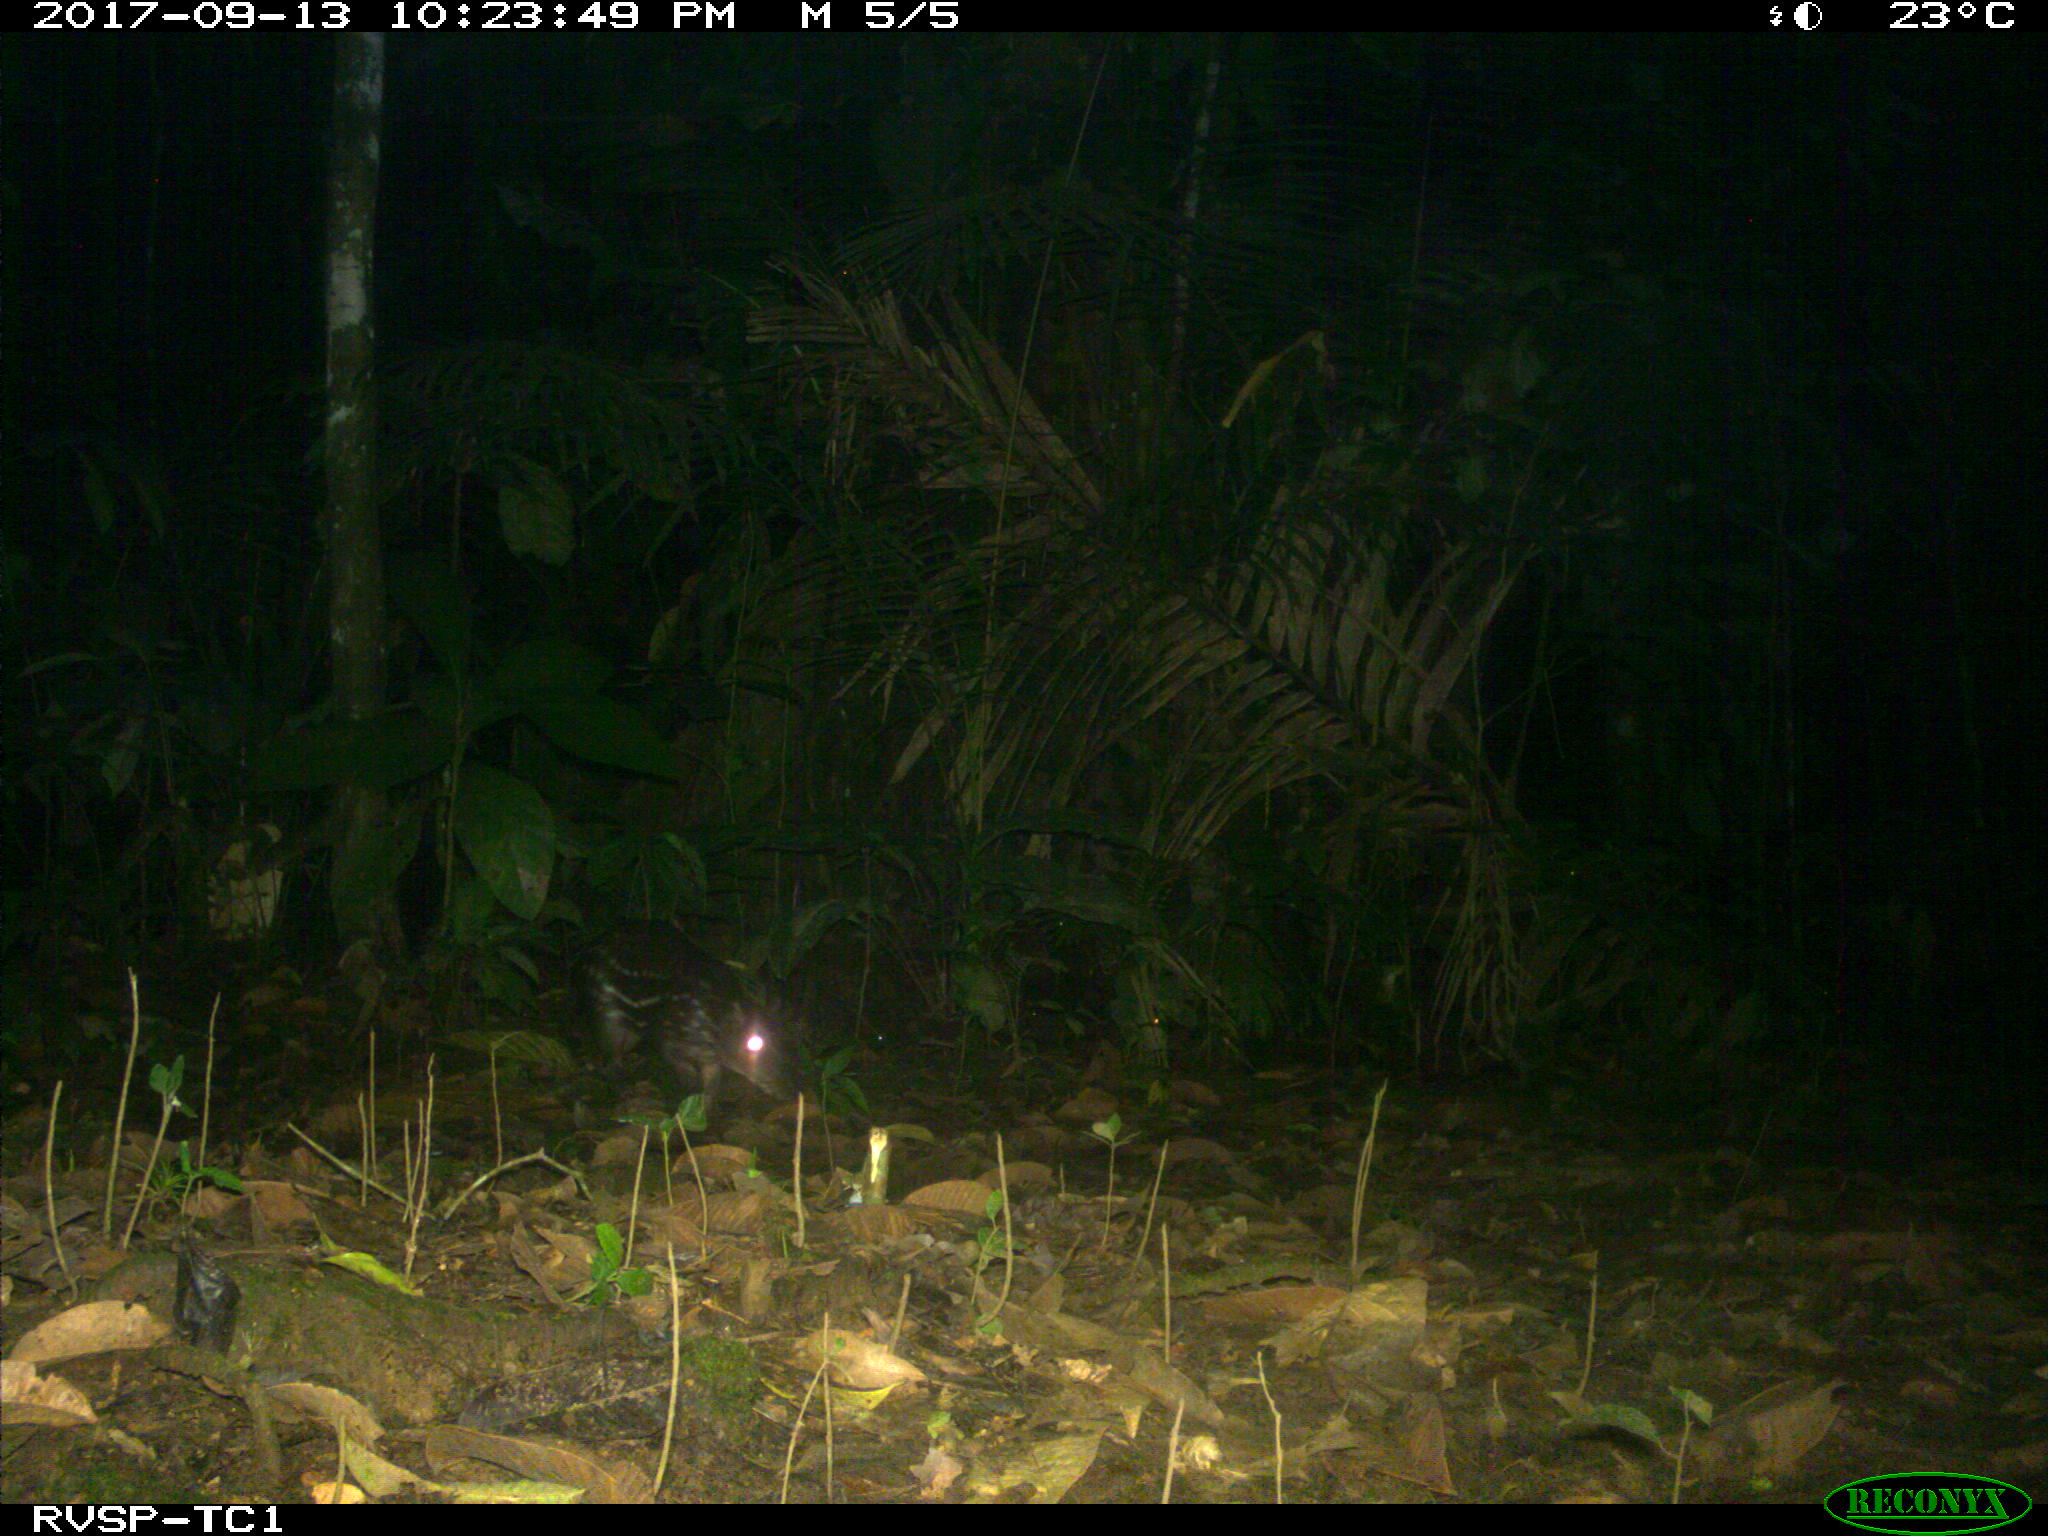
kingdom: Animalia
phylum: Chordata
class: Mammalia
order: Rodentia
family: Cuniculidae
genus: Cuniculus
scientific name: Cuniculus paca
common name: Lowland paca
